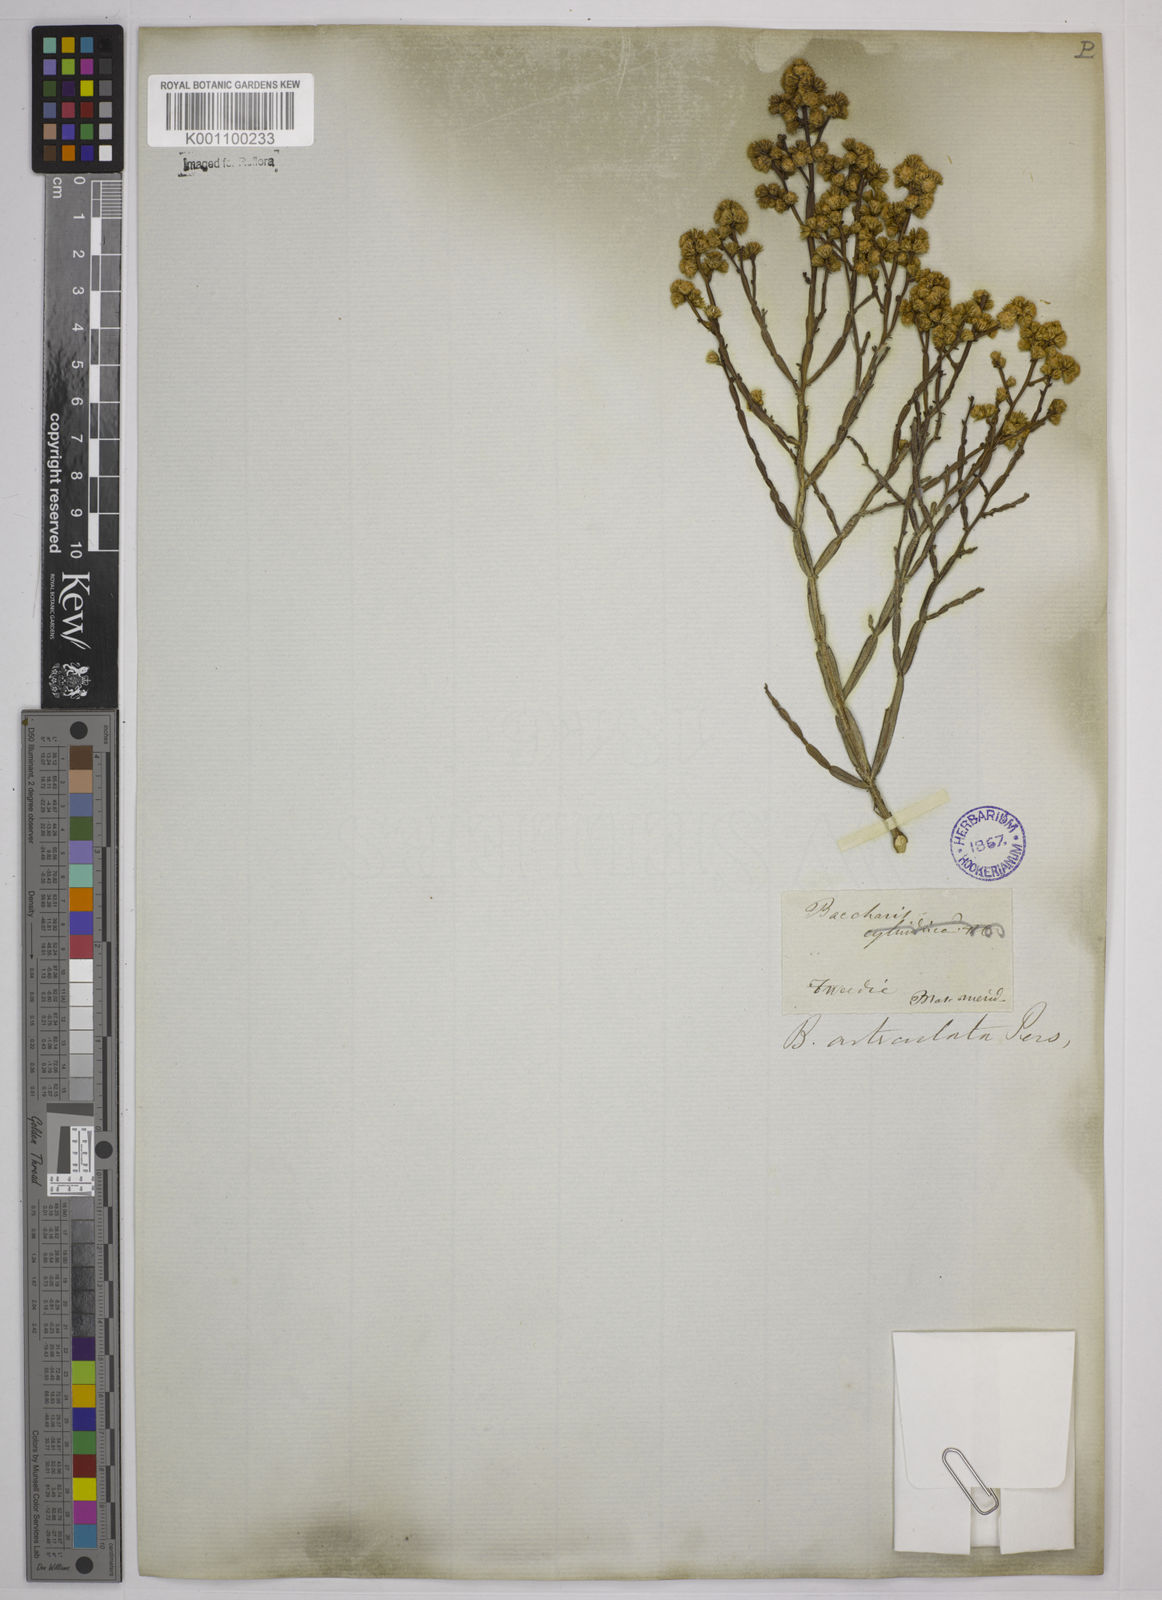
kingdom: Plantae
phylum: Tracheophyta
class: Magnoliopsida
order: Asterales
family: Asteraceae
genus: Baccharis
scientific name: Baccharis
